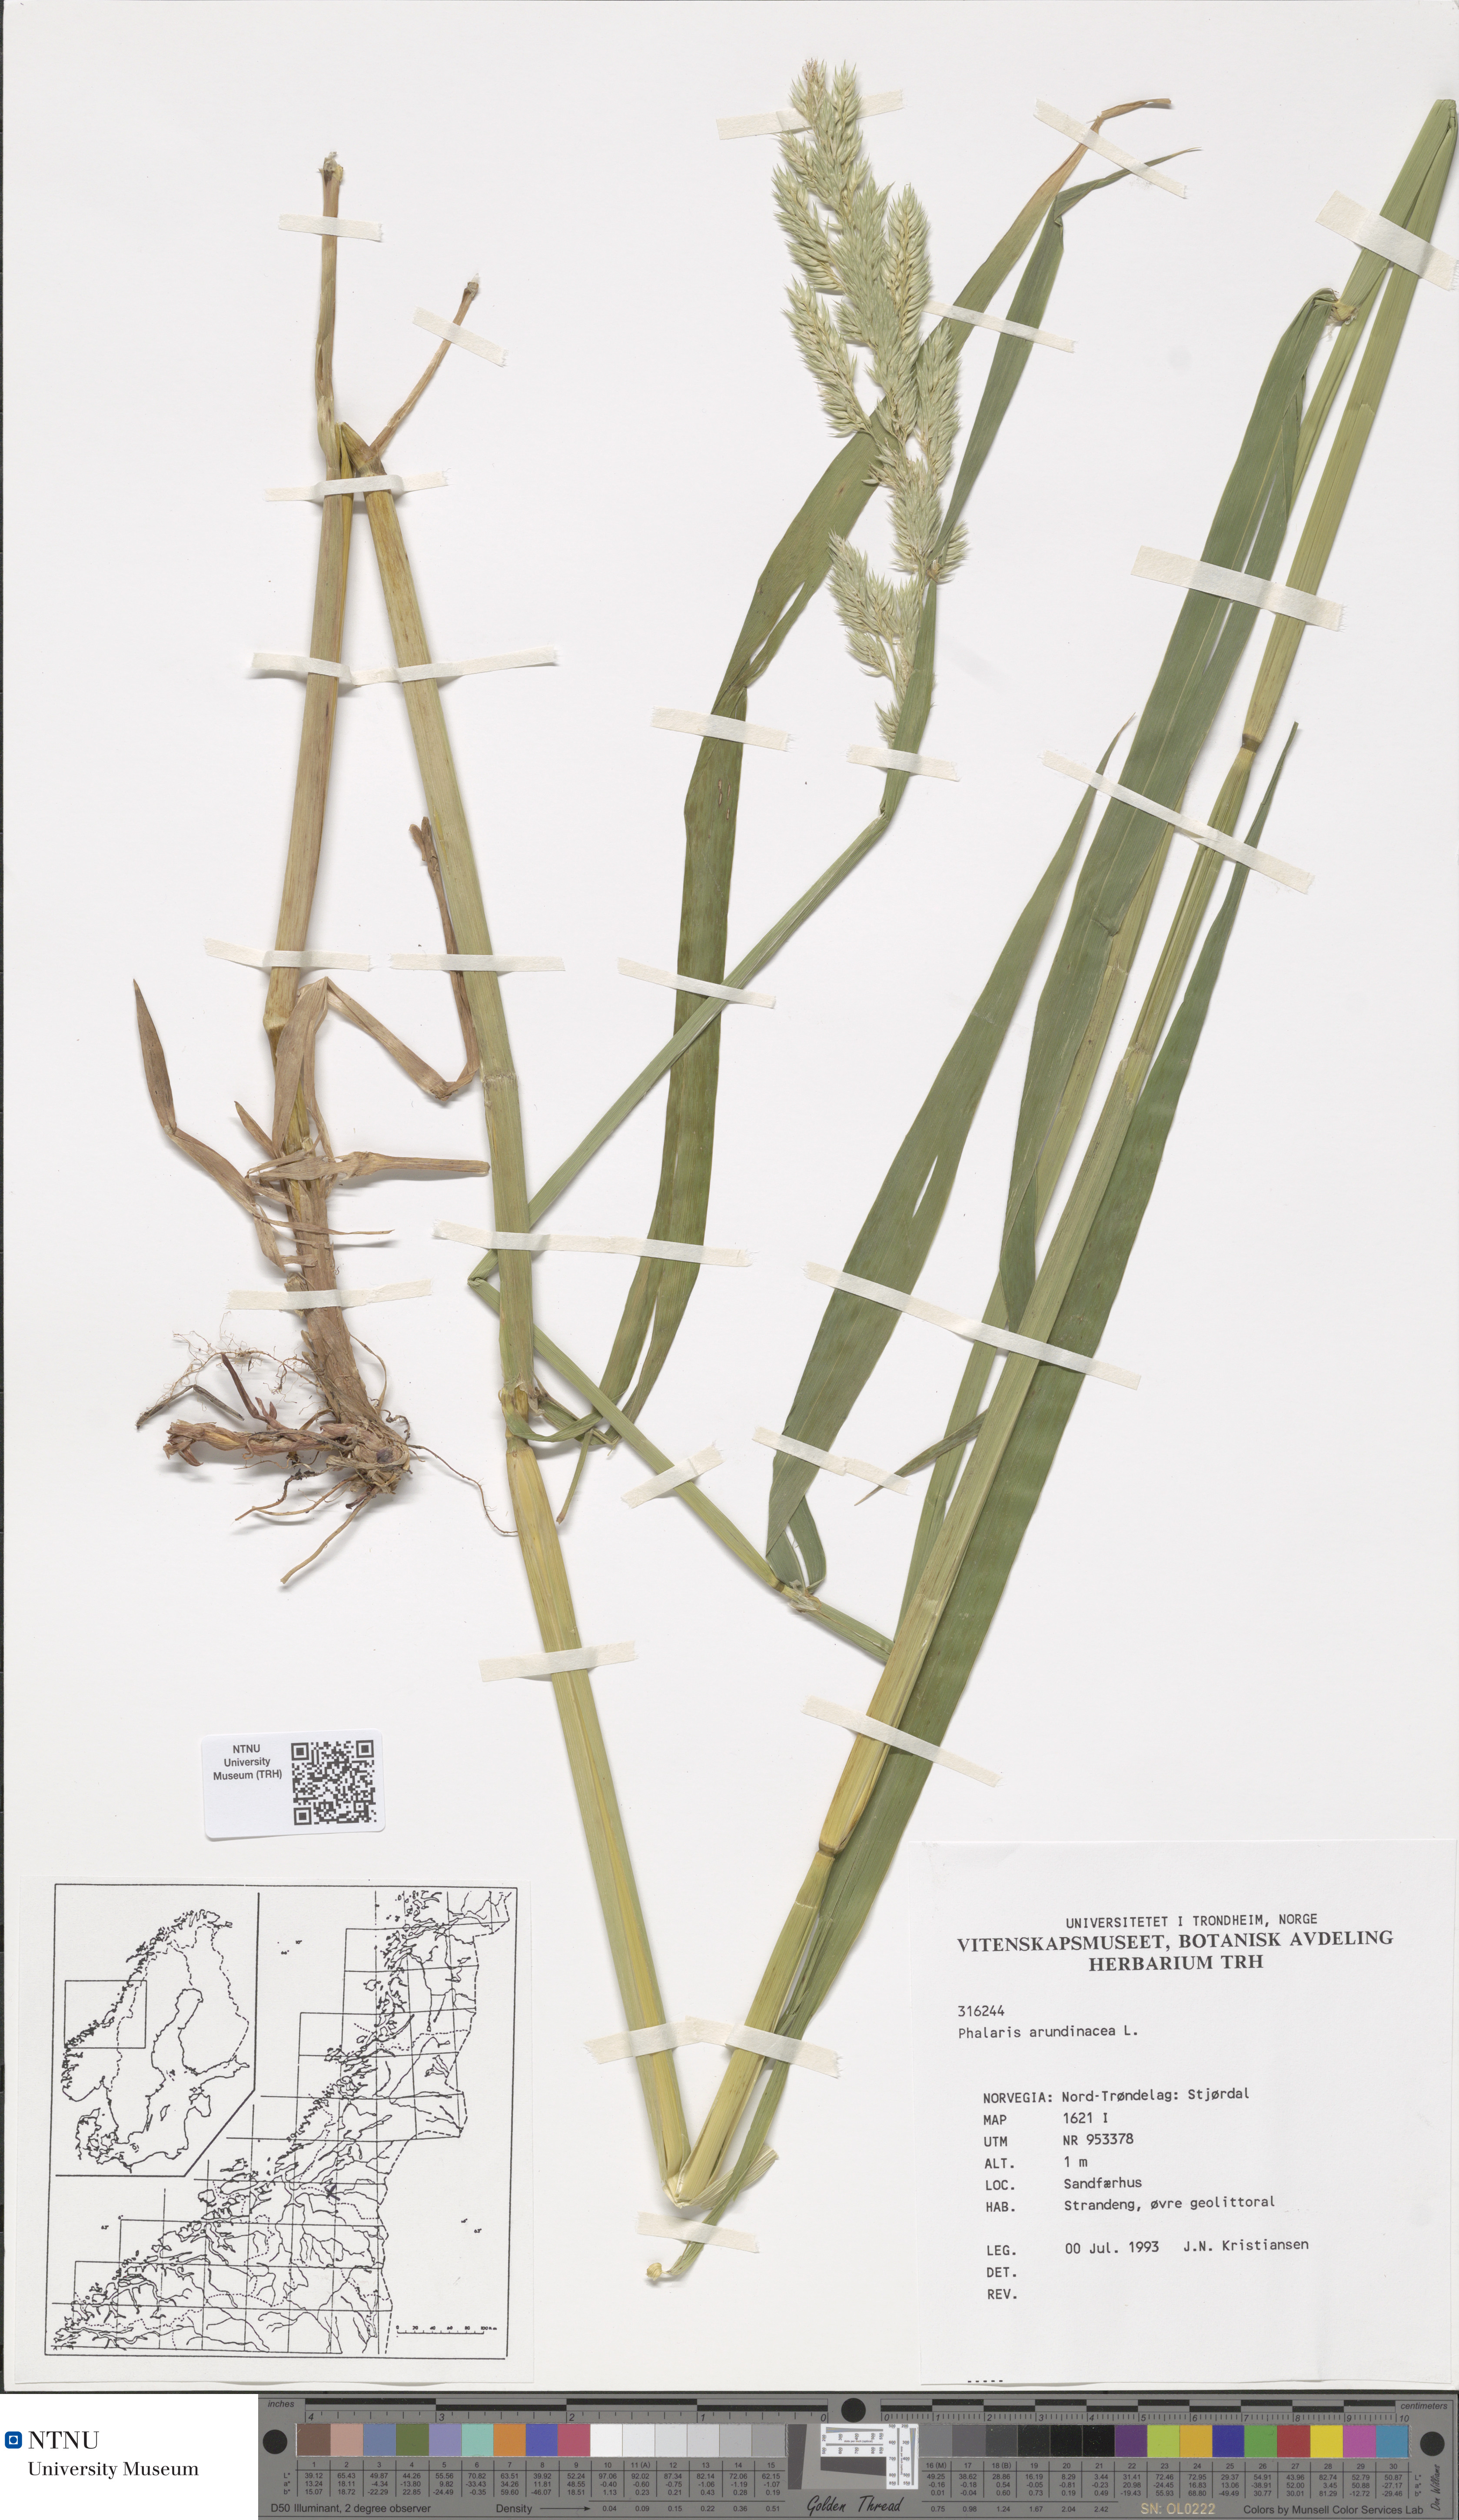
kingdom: Plantae
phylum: Tracheophyta
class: Liliopsida
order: Poales
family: Poaceae
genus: Phalaris
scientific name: Phalaris arundinacea
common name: Reed canary-grass
